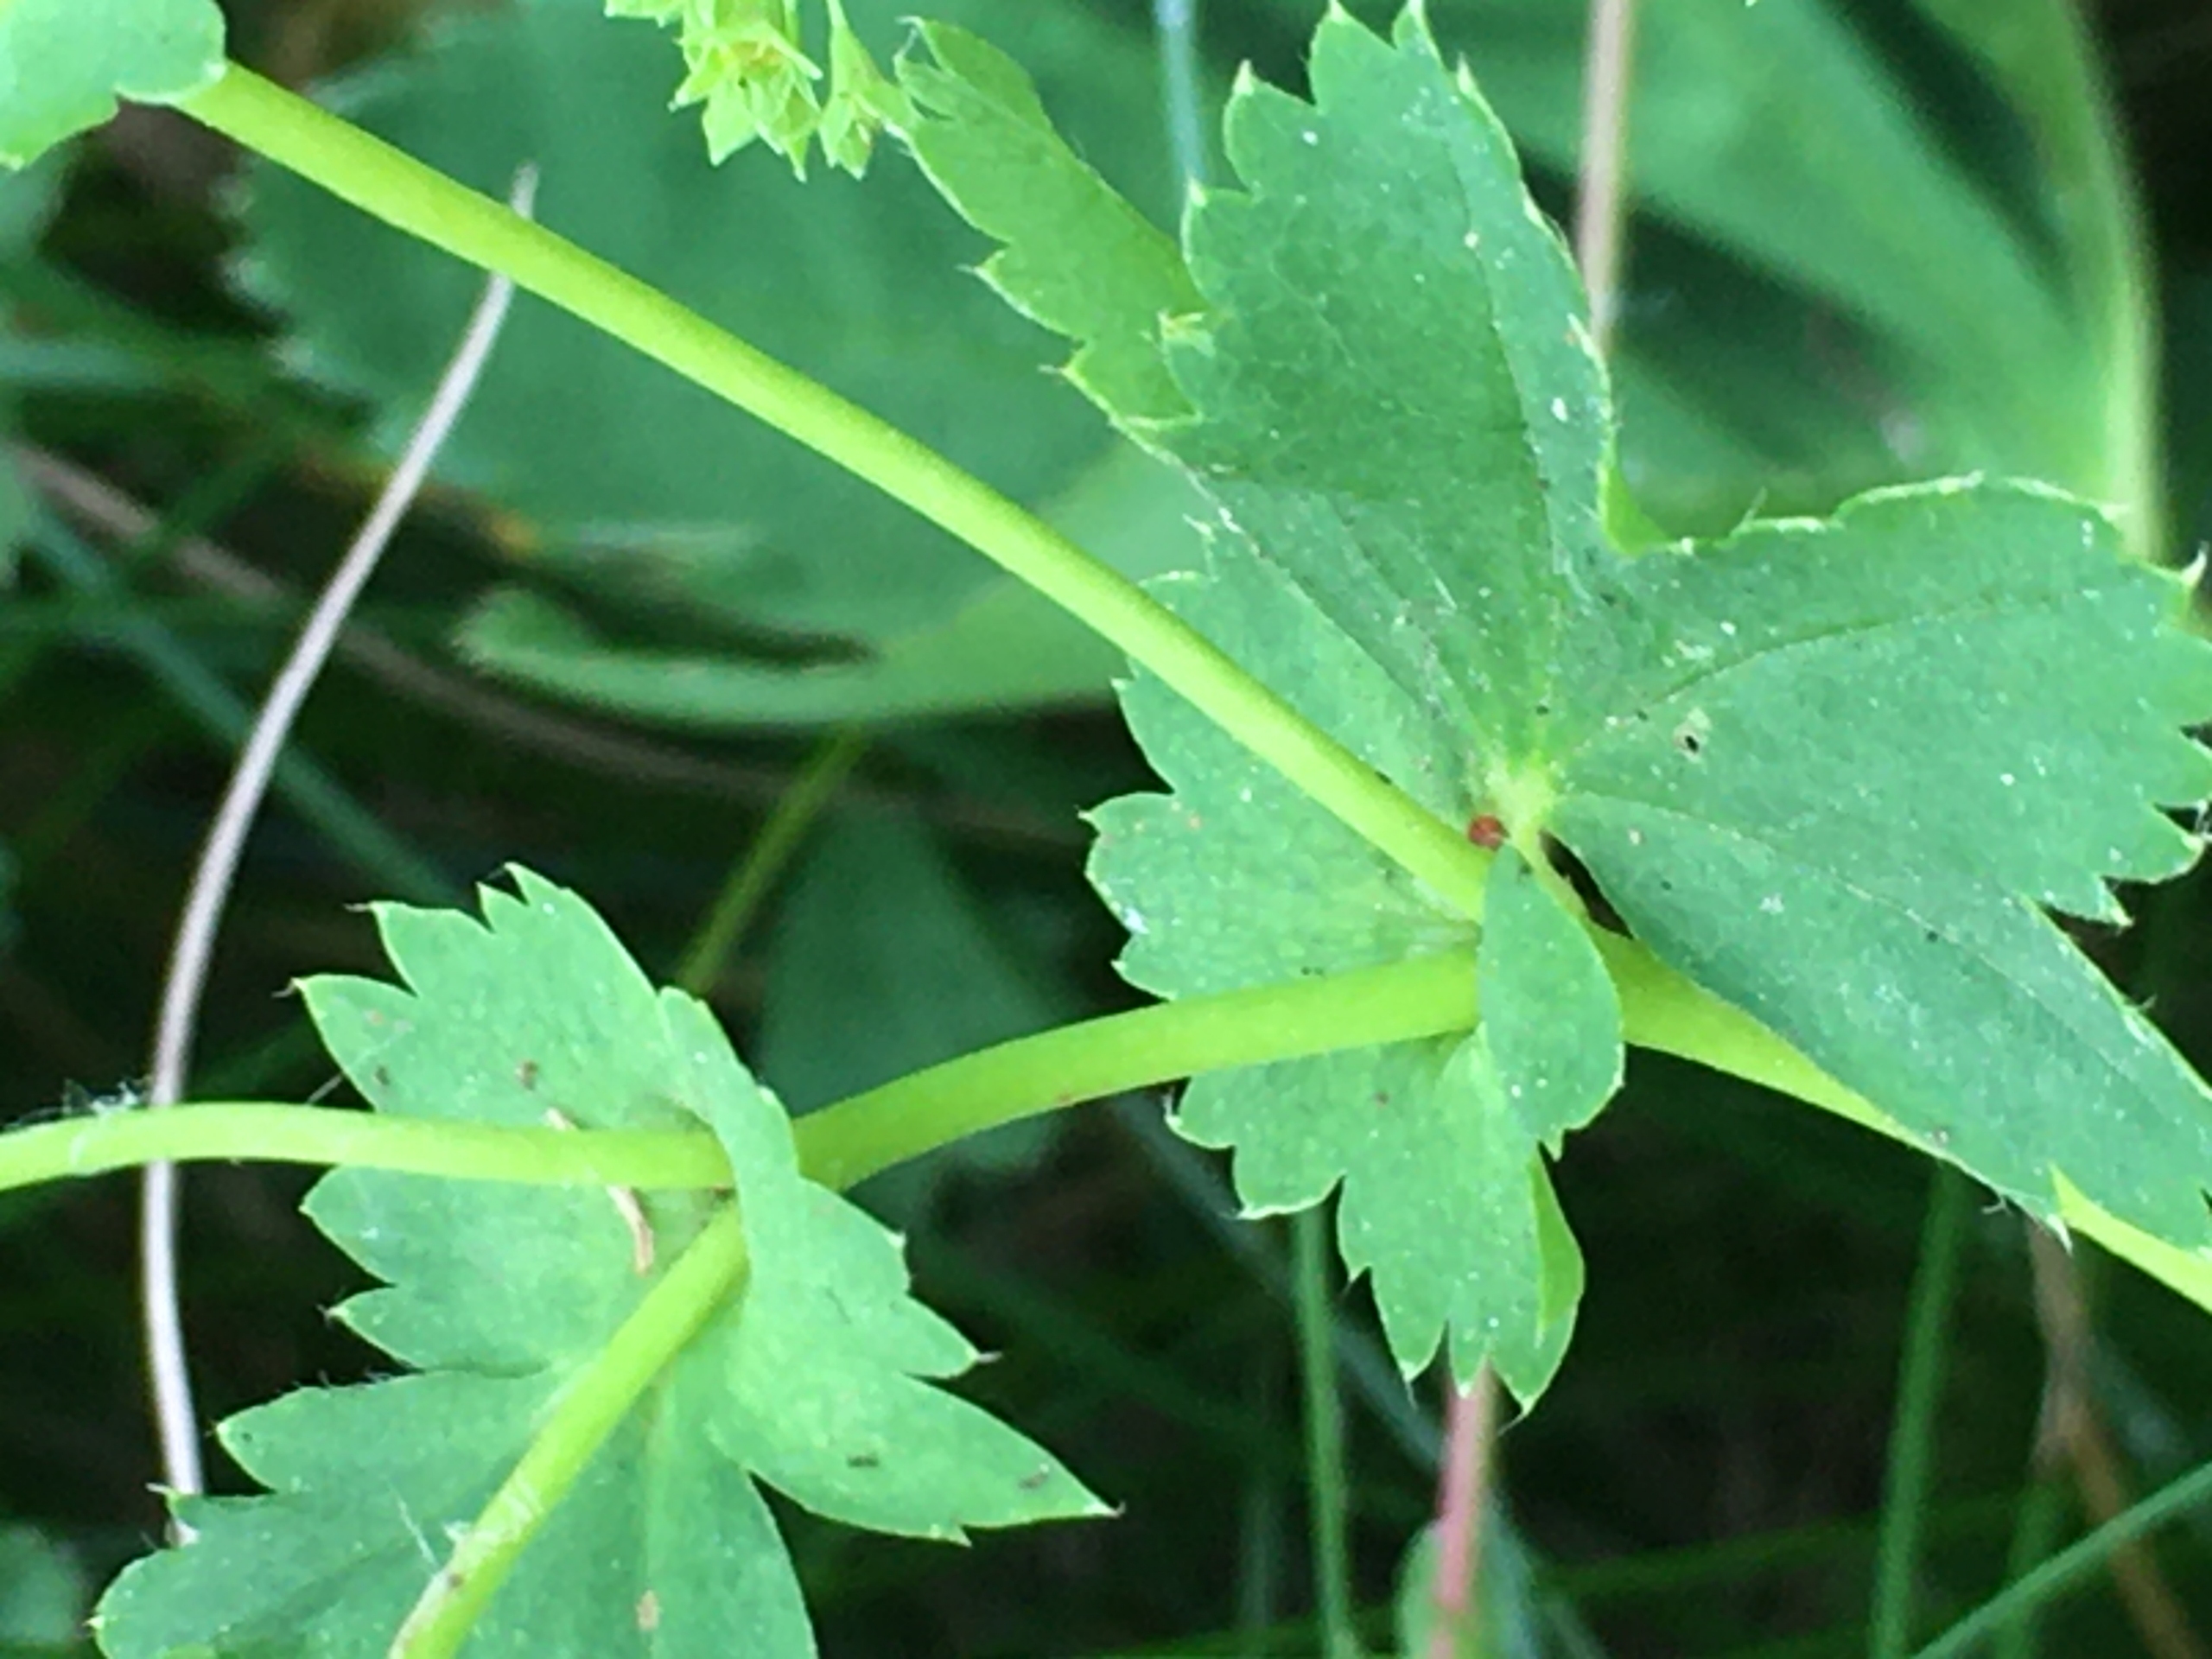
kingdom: Plantae
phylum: Tracheophyta
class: Magnoliopsida
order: Rosales
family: Rosaceae
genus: Alchemilla
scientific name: Alchemilla glabra
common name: Glat løvefod
